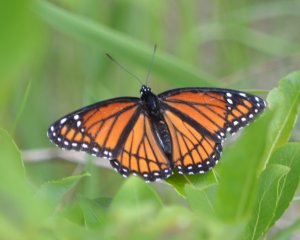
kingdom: Animalia
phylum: Arthropoda
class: Insecta
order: Lepidoptera
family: Nymphalidae
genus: Limenitis
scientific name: Limenitis archippus
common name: Viceroy
